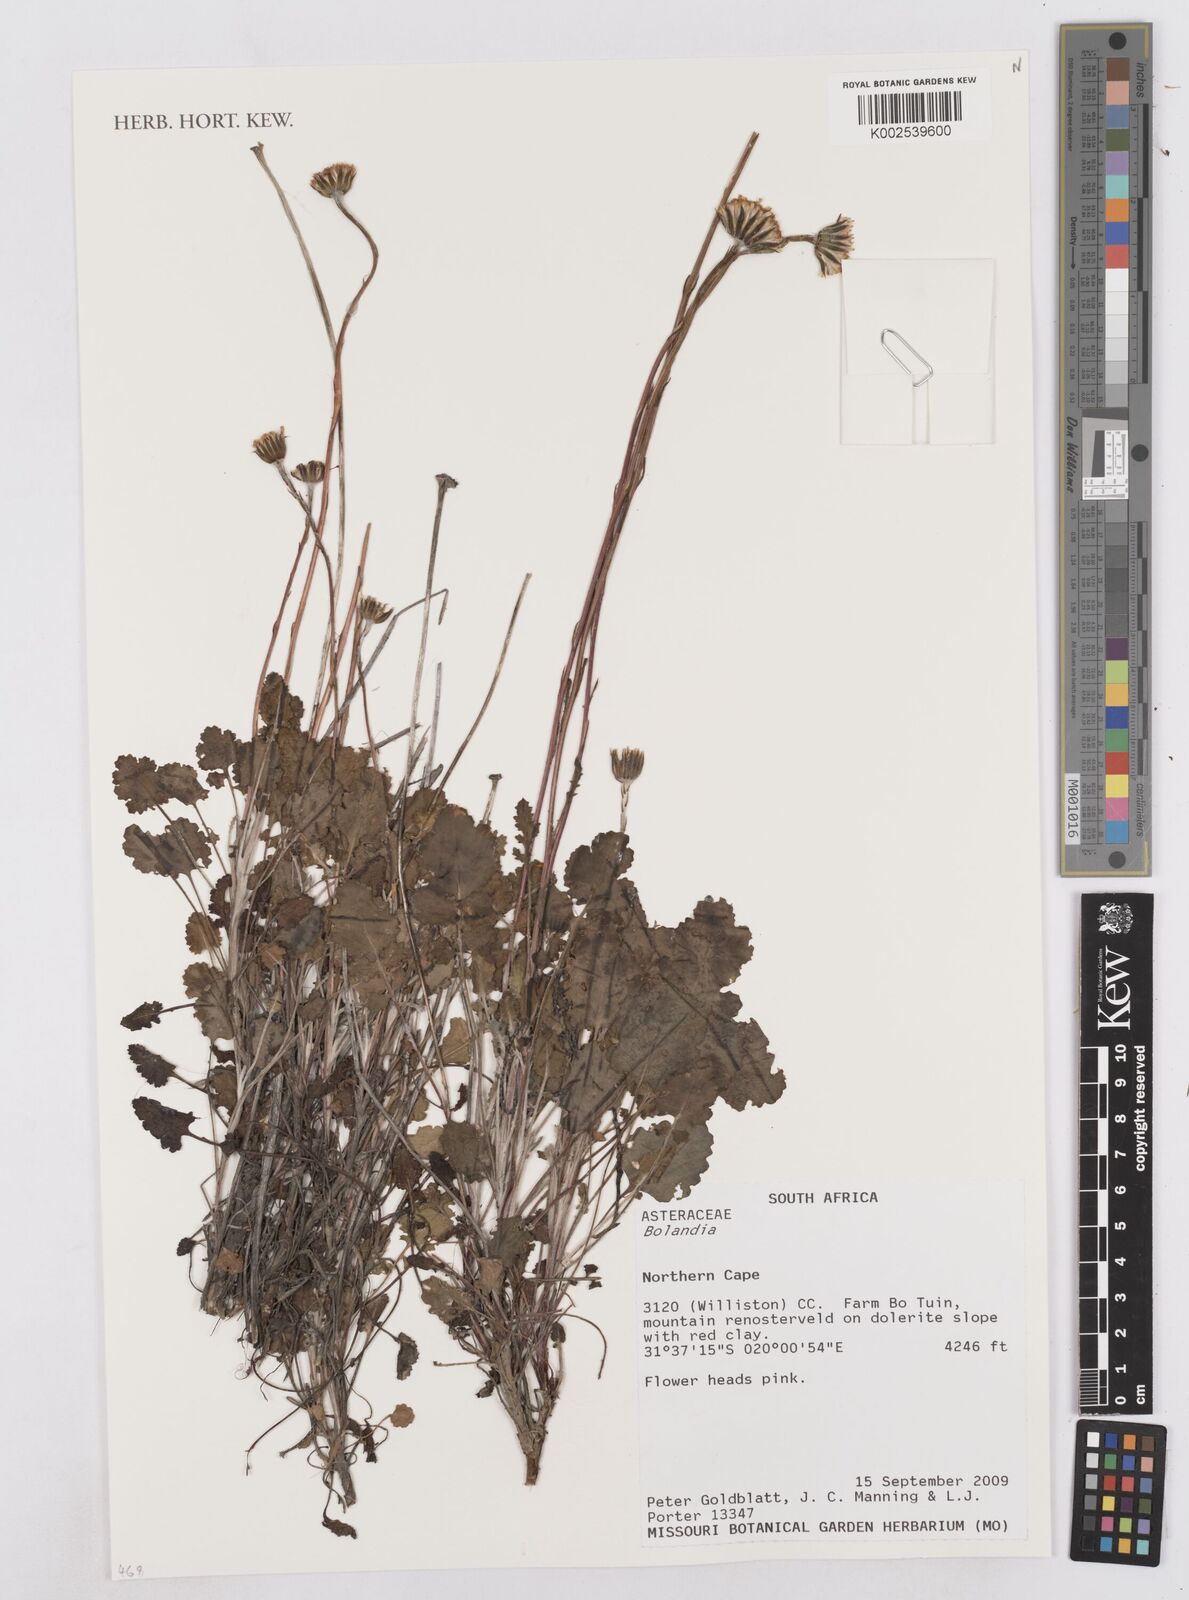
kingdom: Plantae
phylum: Tracheophyta
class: Magnoliopsida
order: Asterales
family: Asteraceae
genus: Bolandia
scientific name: Bolandia pedunculosa
